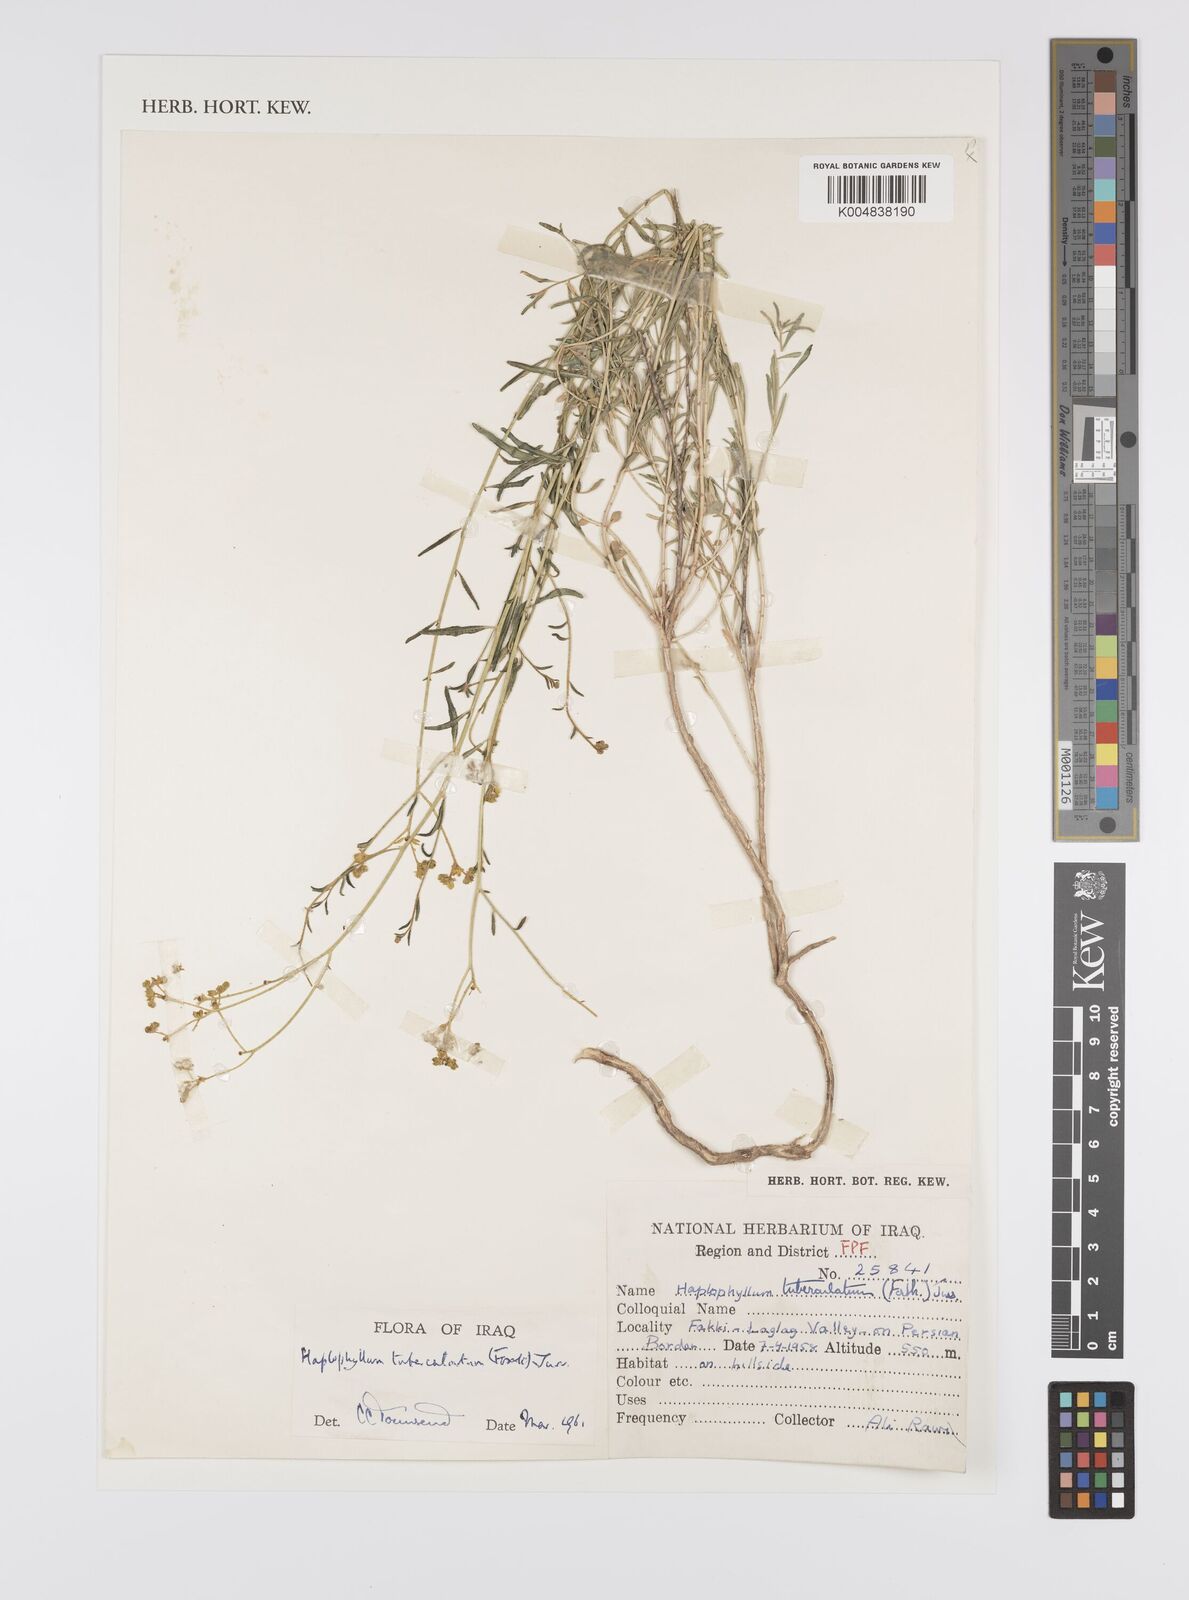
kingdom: Plantae
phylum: Tracheophyta
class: Magnoliopsida
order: Sapindales
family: Rutaceae
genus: Haplophyllum
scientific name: Haplophyllum tuberculatum
